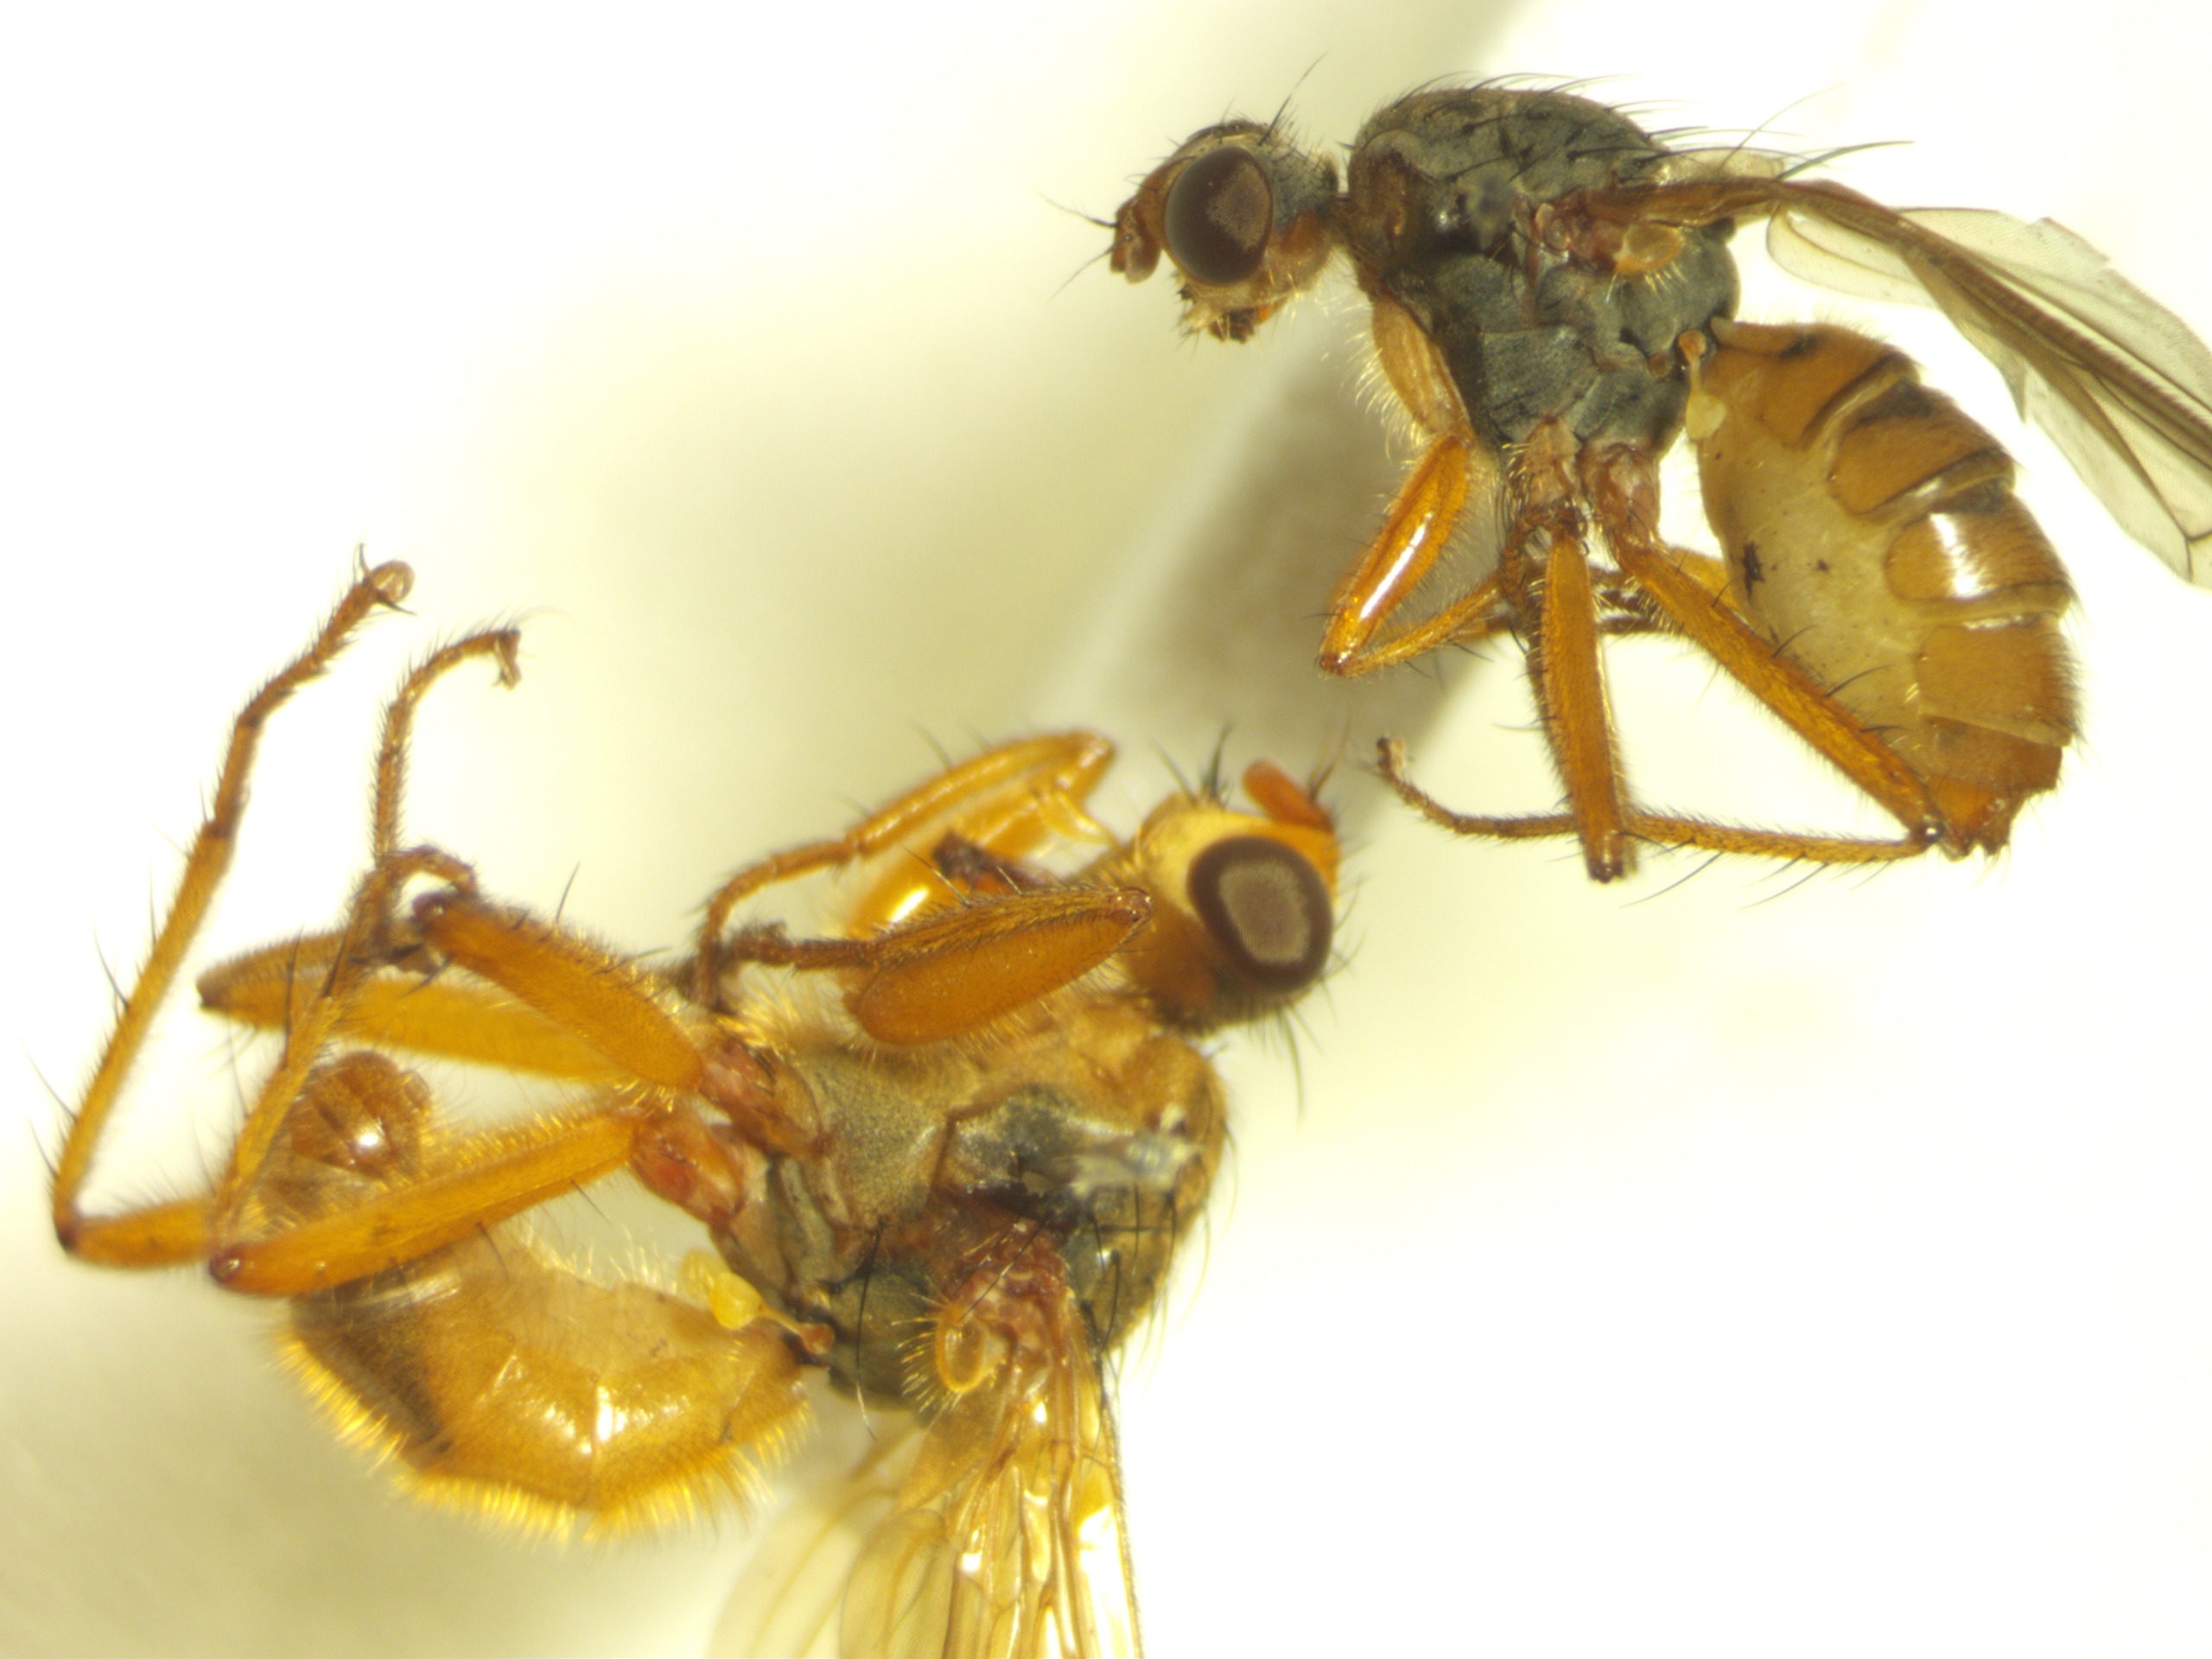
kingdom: Animalia
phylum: Arthropoda
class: Insecta
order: Diptera
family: Scathophagidae
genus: Scathophaga
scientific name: Scathophaga inquinata
